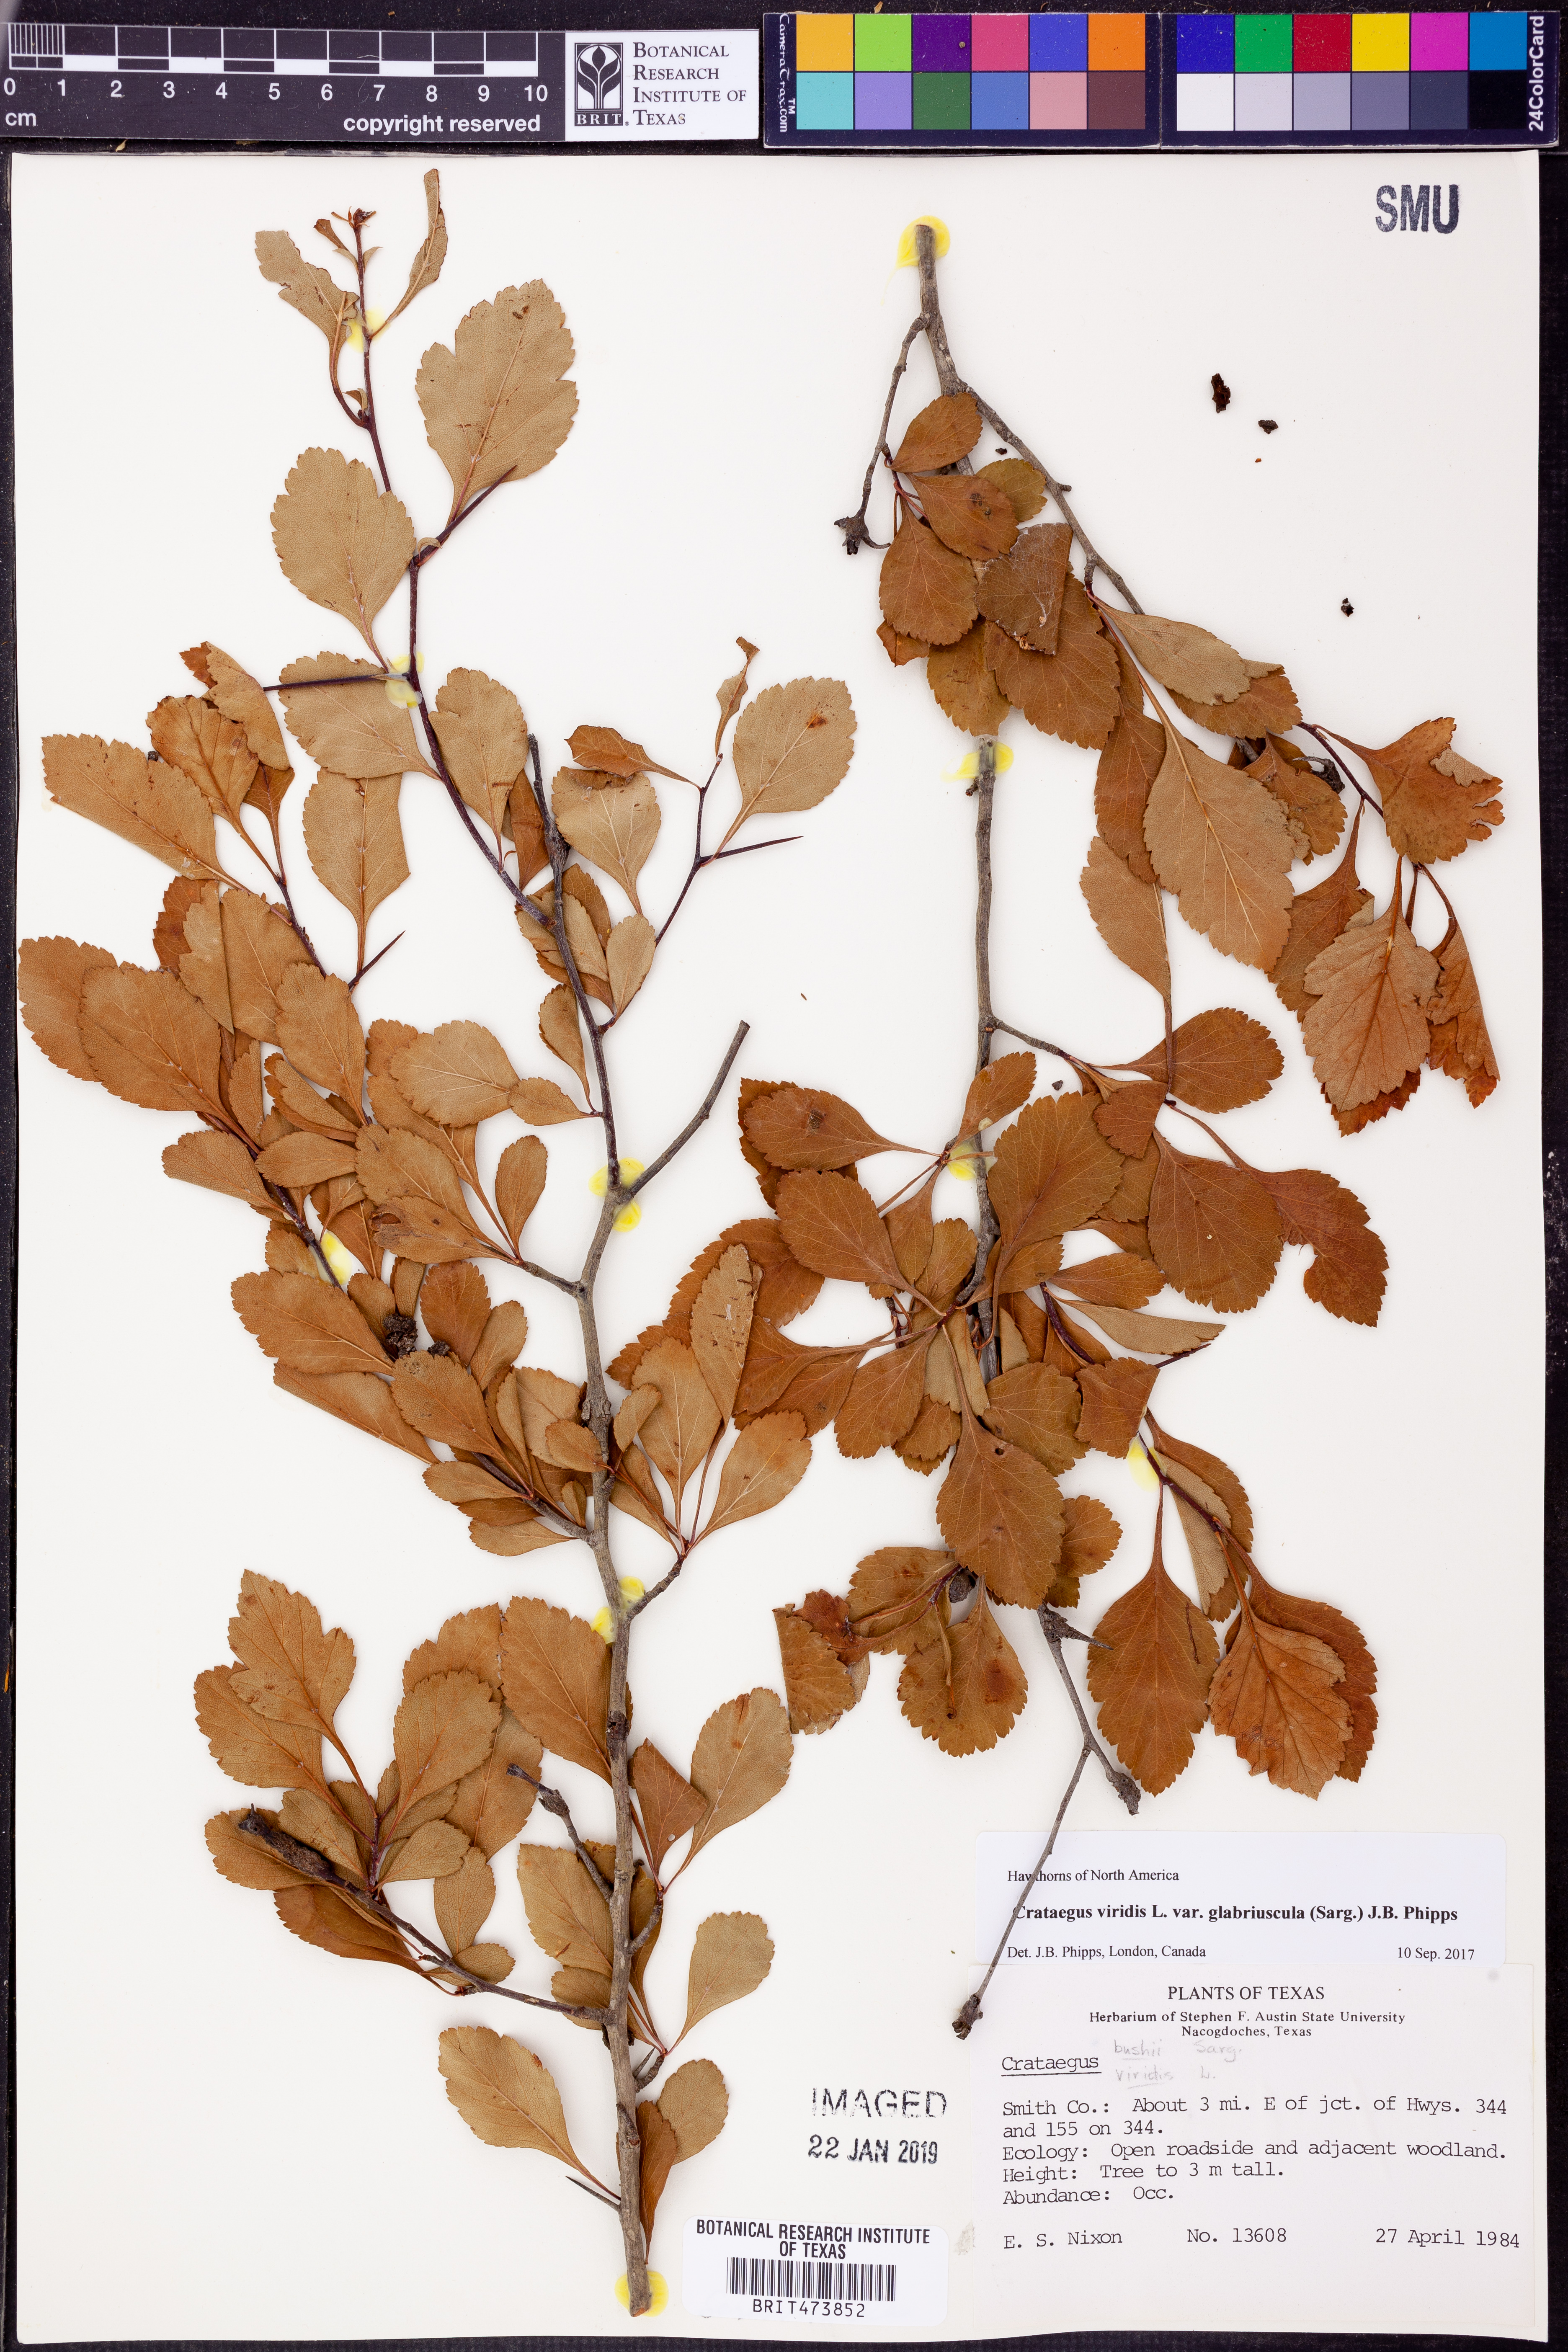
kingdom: Plantae
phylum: Tracheophyta
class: Magnoliopsida
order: Rosales
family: Rosaceae
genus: Crataegus
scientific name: Crataegus viridis
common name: Southernthorn
